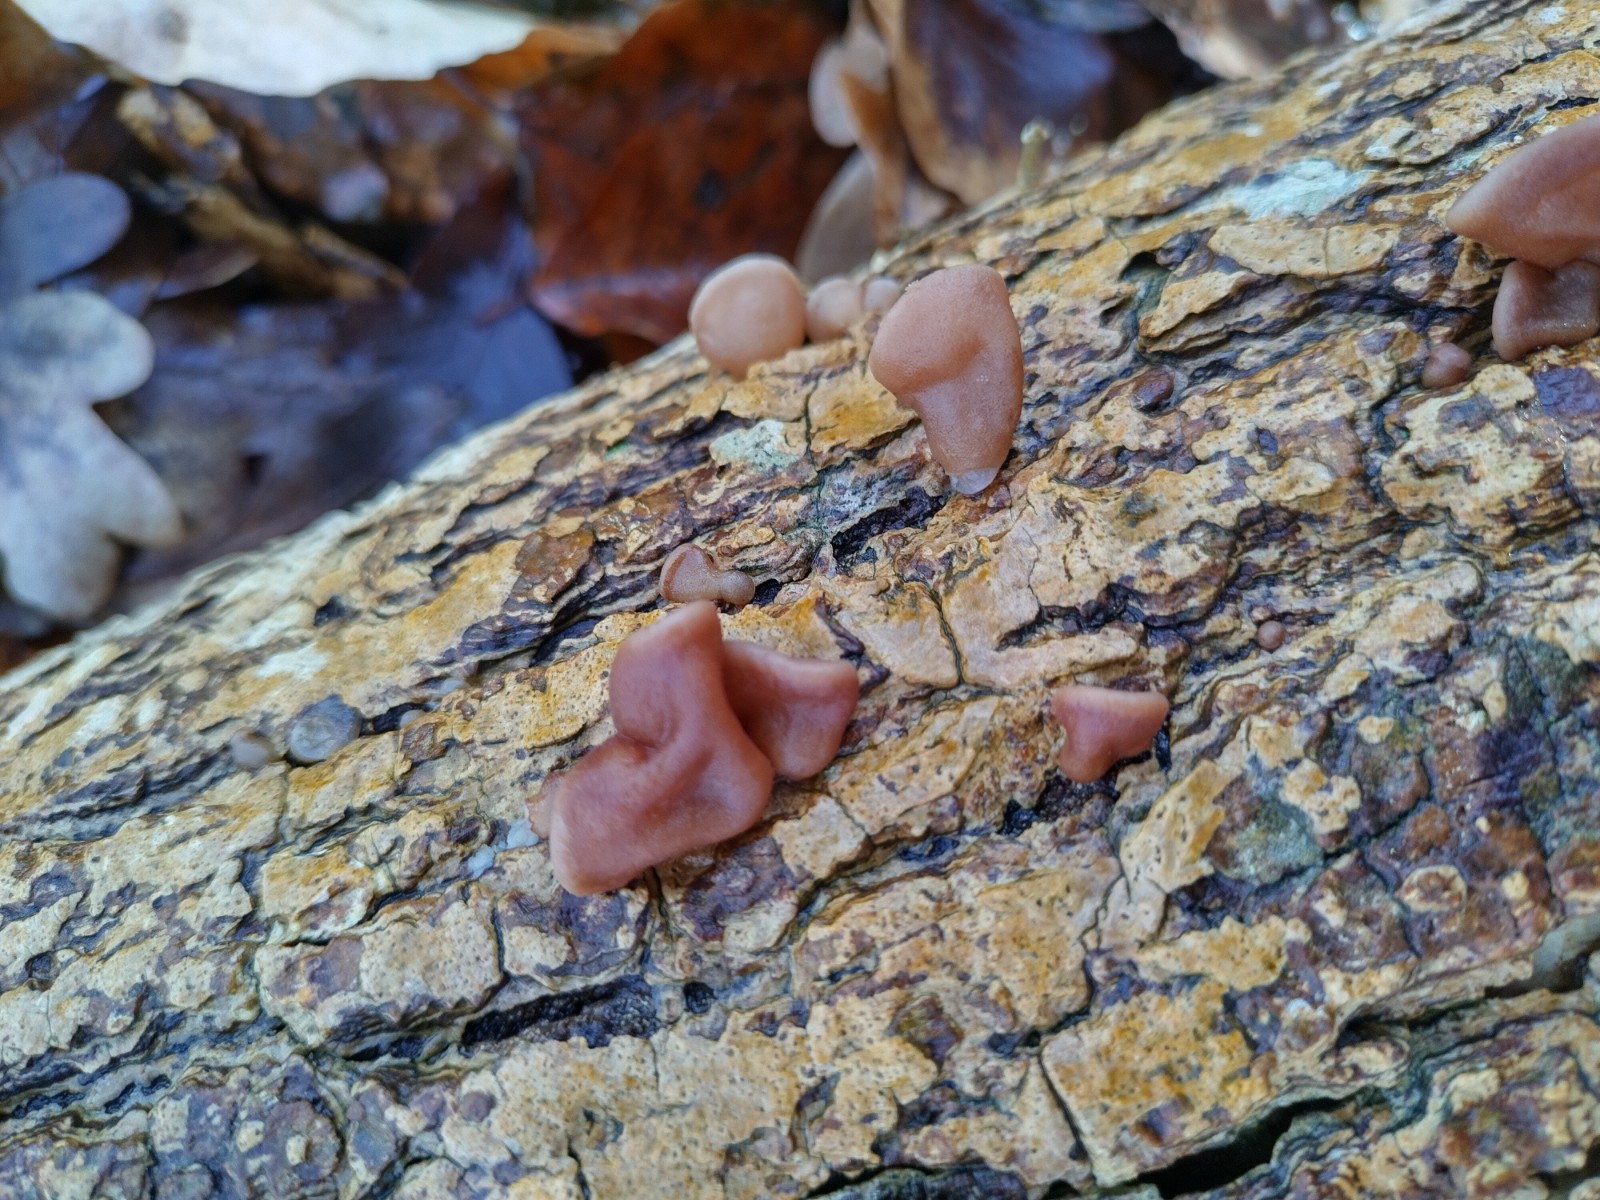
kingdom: Fungi
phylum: Basidiomycota
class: Agaricomycetes
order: Auriculariales
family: Auriculariaceae
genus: Auricularia
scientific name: Auricularia auricula-judae
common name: almindelig judasøre
